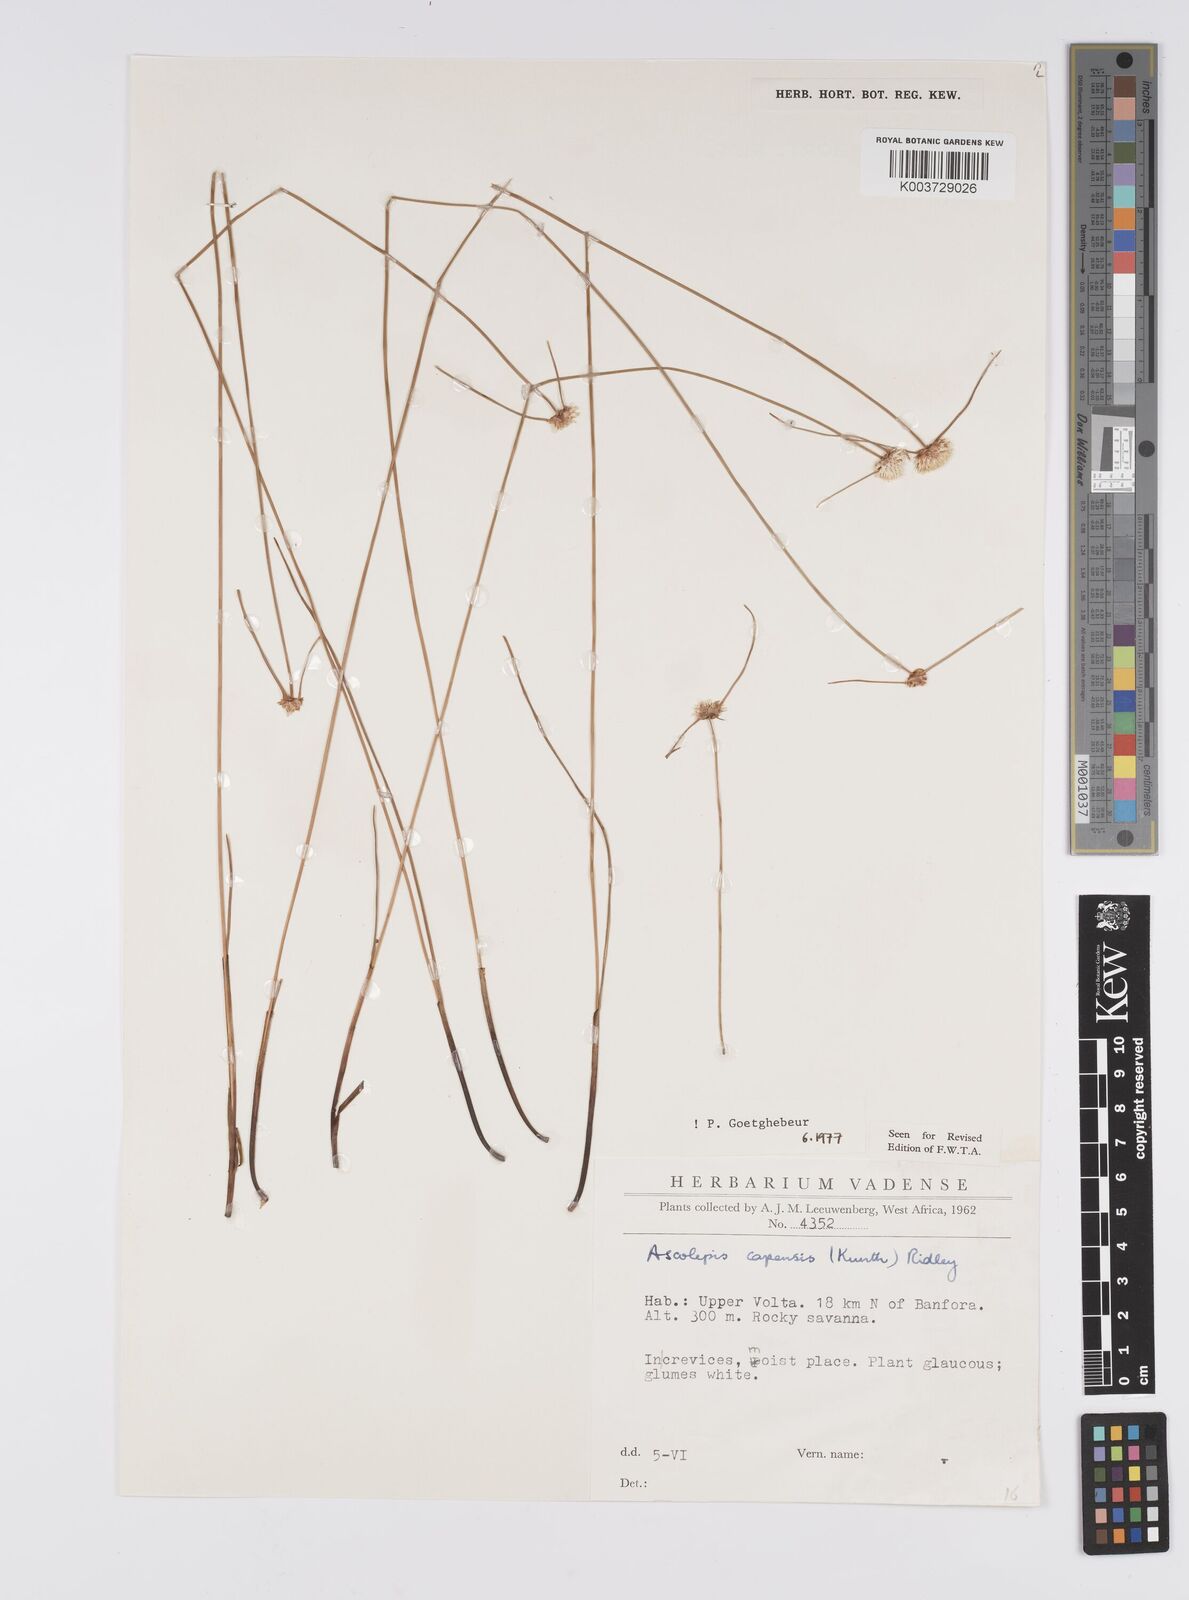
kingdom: Plantae
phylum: Tracheophyta
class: Liliopsida
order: Poales
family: Cyperaceae
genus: Ascolepis
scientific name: Ascolepis
